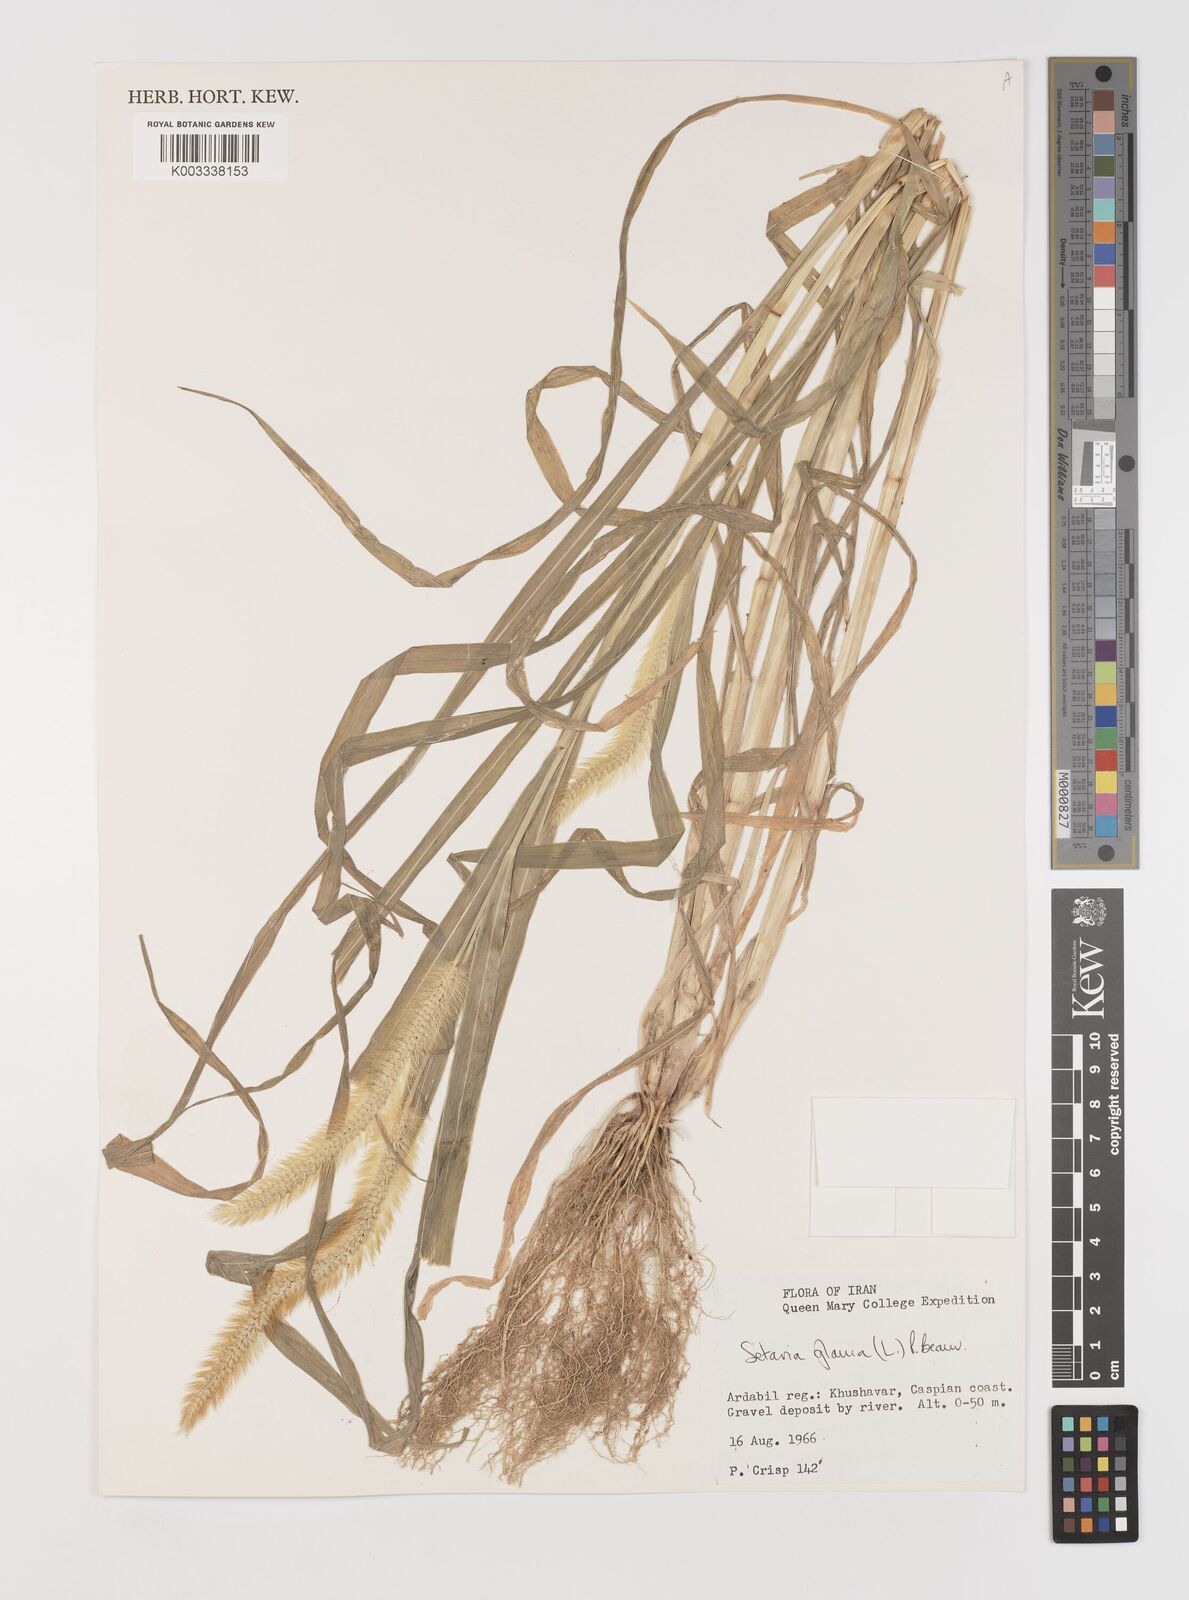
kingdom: Plantae
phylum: Tracheophyta
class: Liliopsida
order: Poales
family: Poaceae
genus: Setaria
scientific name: Setaria pumila
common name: Yellow bristle-grass
